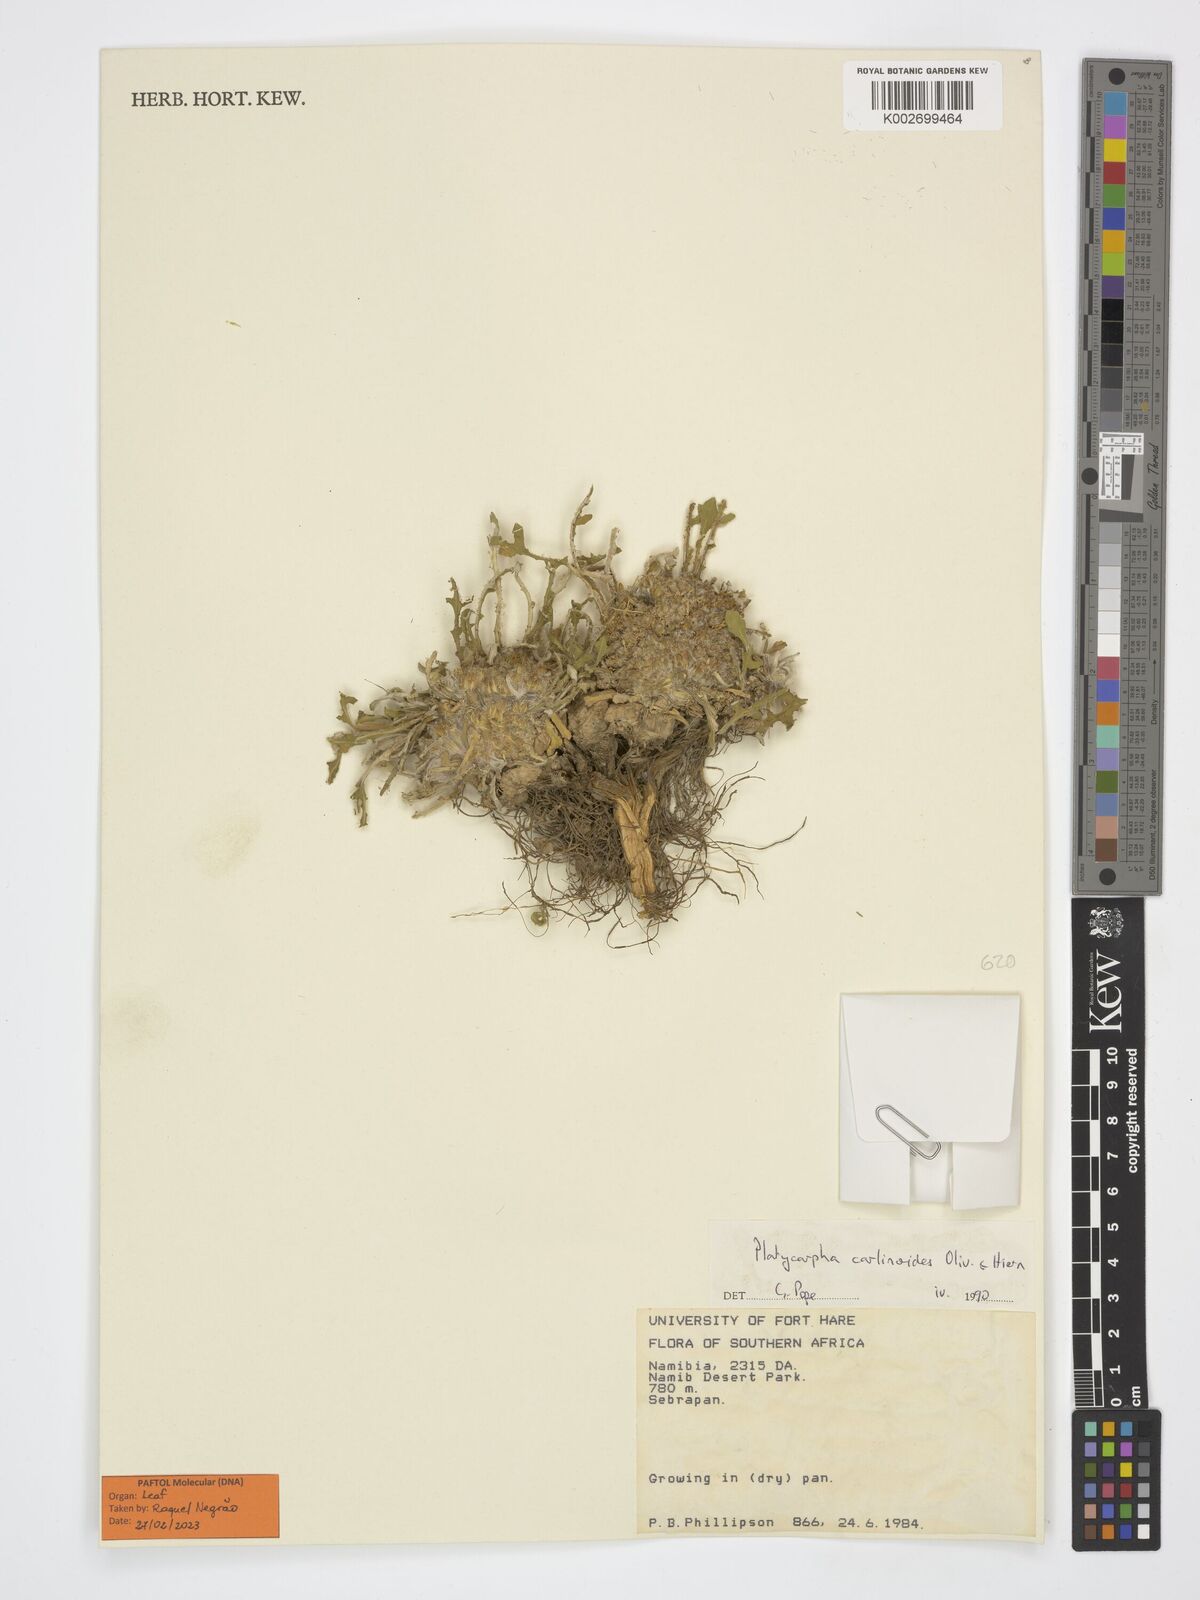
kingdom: Plantae
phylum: Tracheophyta
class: Magnoliopsida
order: Asterales
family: Asteraceae
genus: Platycarphella
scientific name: Platycarphella carlinoides
